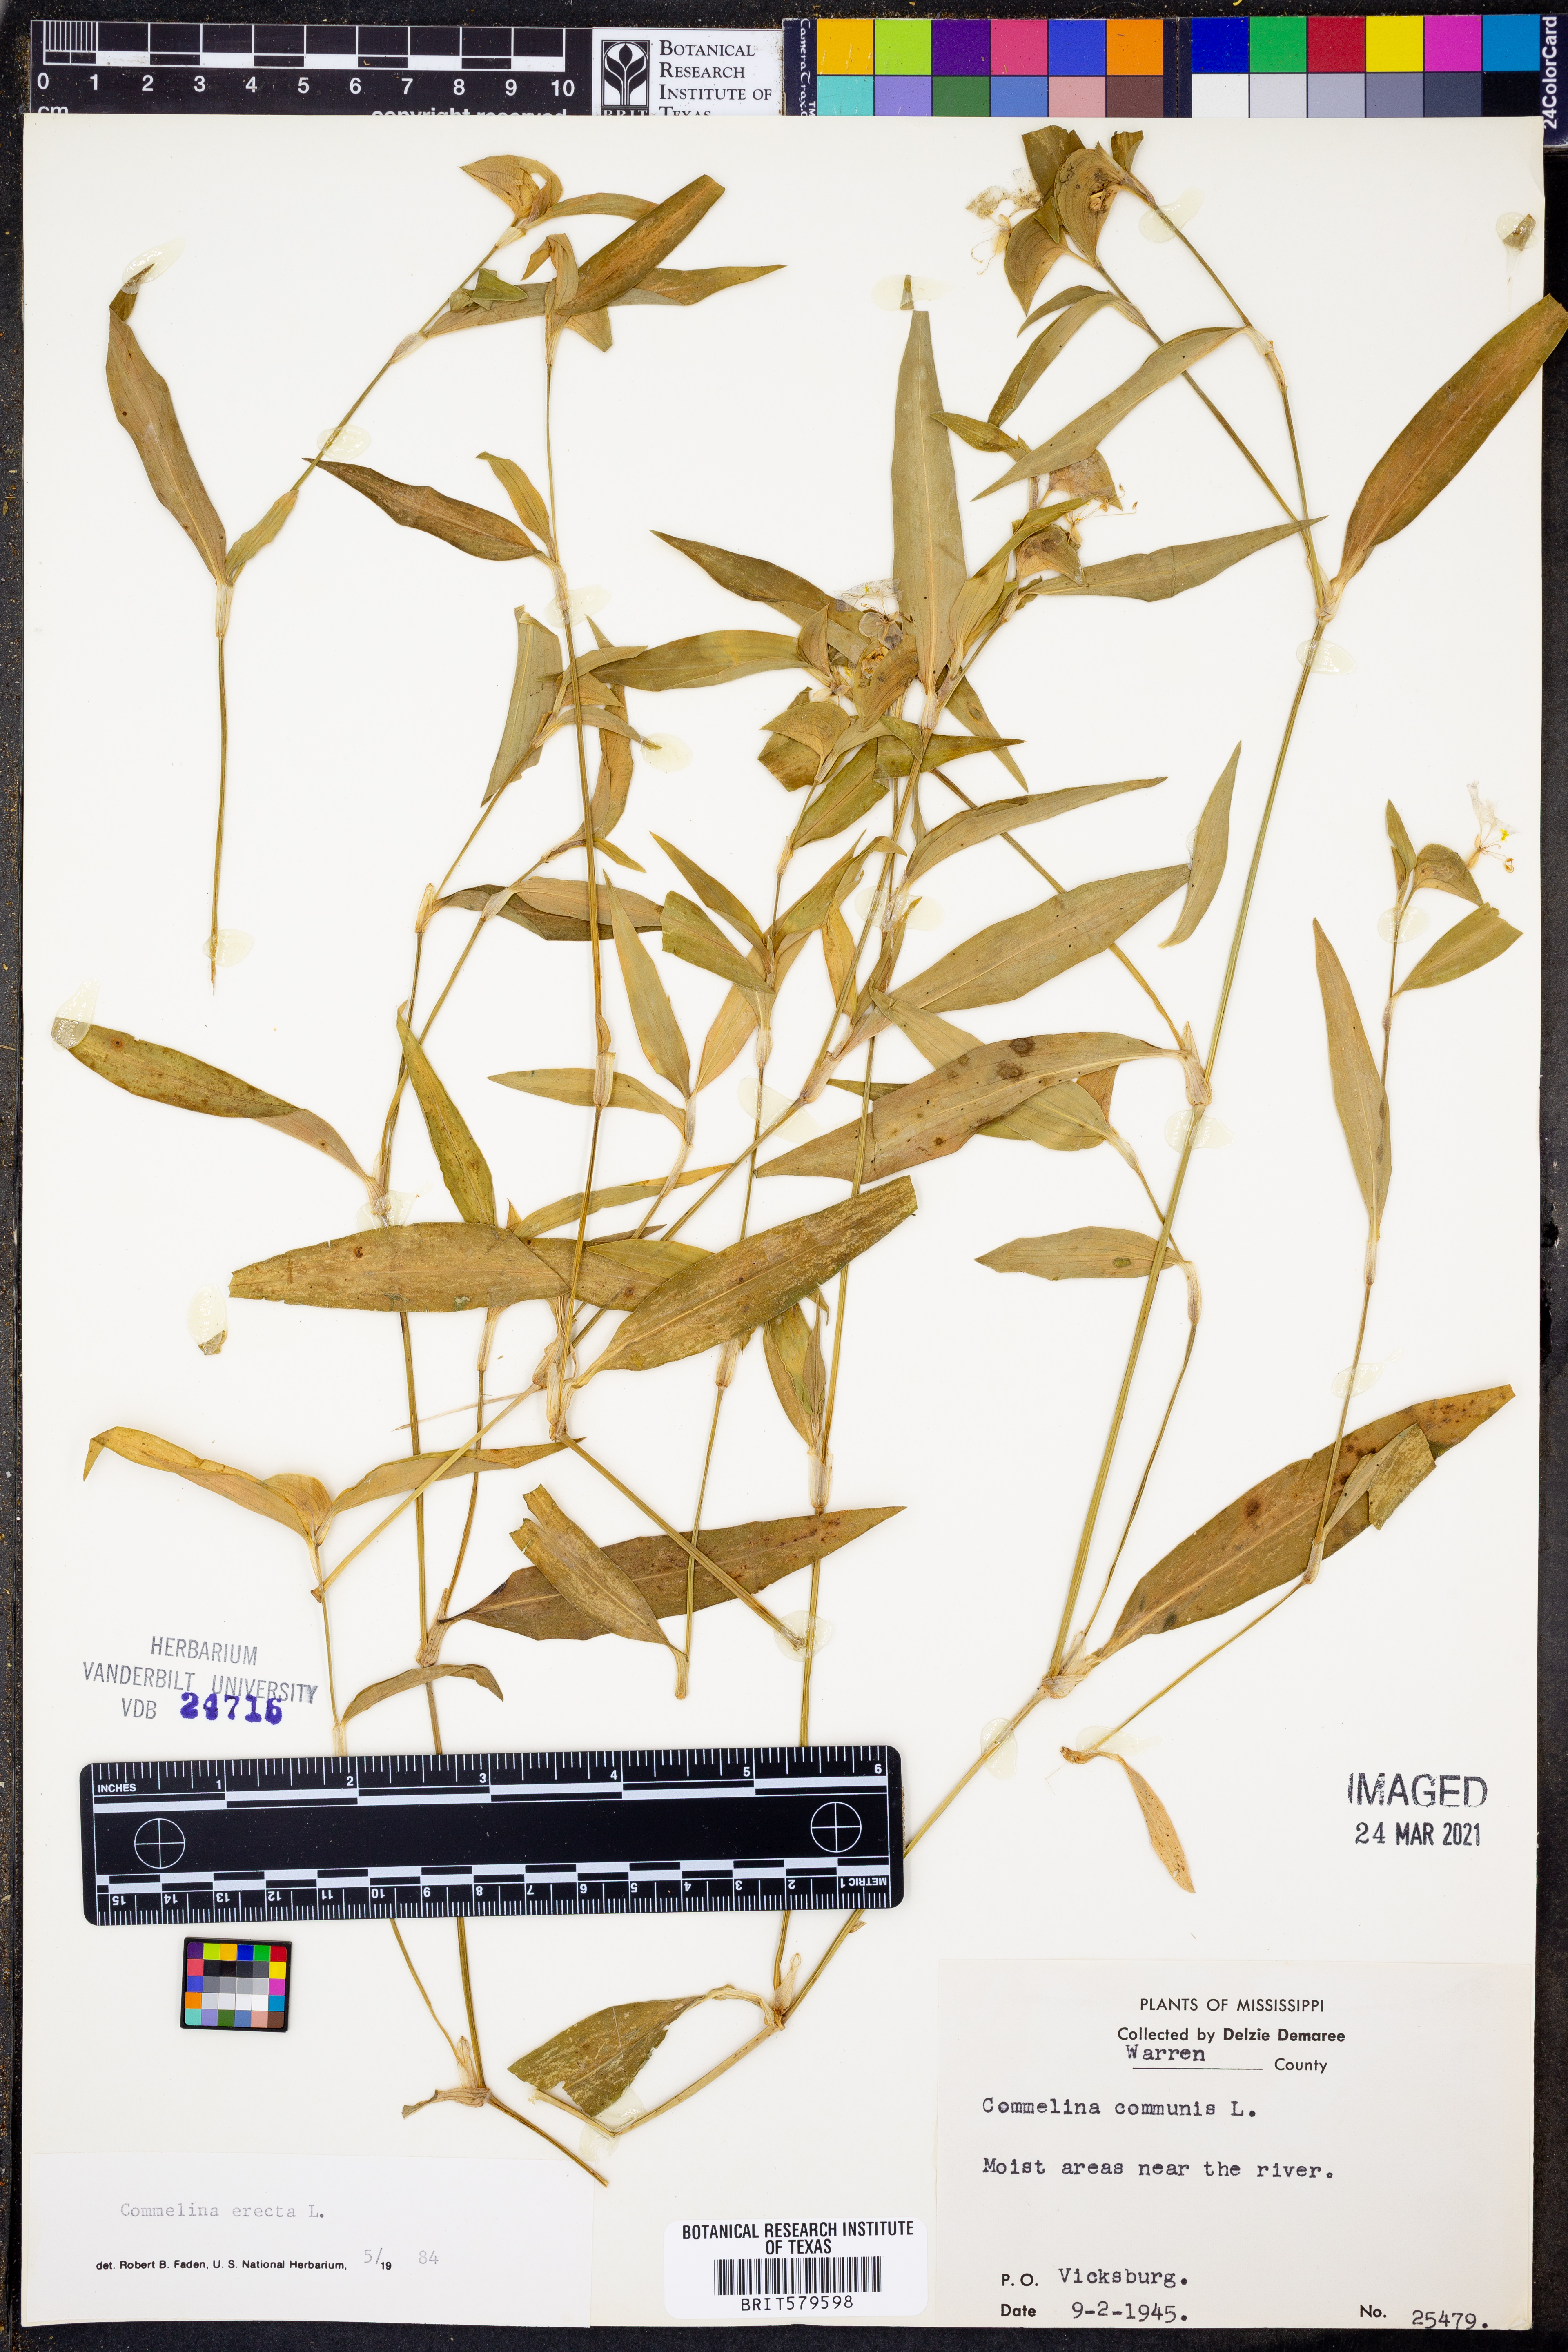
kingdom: Plantae
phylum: Tracheophyta
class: Liliopsida
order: Commelinales
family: Commelinaceae
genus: Commelina
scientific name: Commelina erecta
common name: Blousel blommetjie
